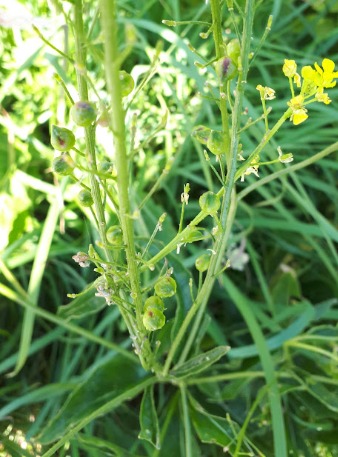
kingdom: Plantae
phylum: Tracheophyta
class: Magnoliopsida
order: Brassicales
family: Brassicaceae
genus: Bunias
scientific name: Bunias orientalis
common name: Takkeklap
